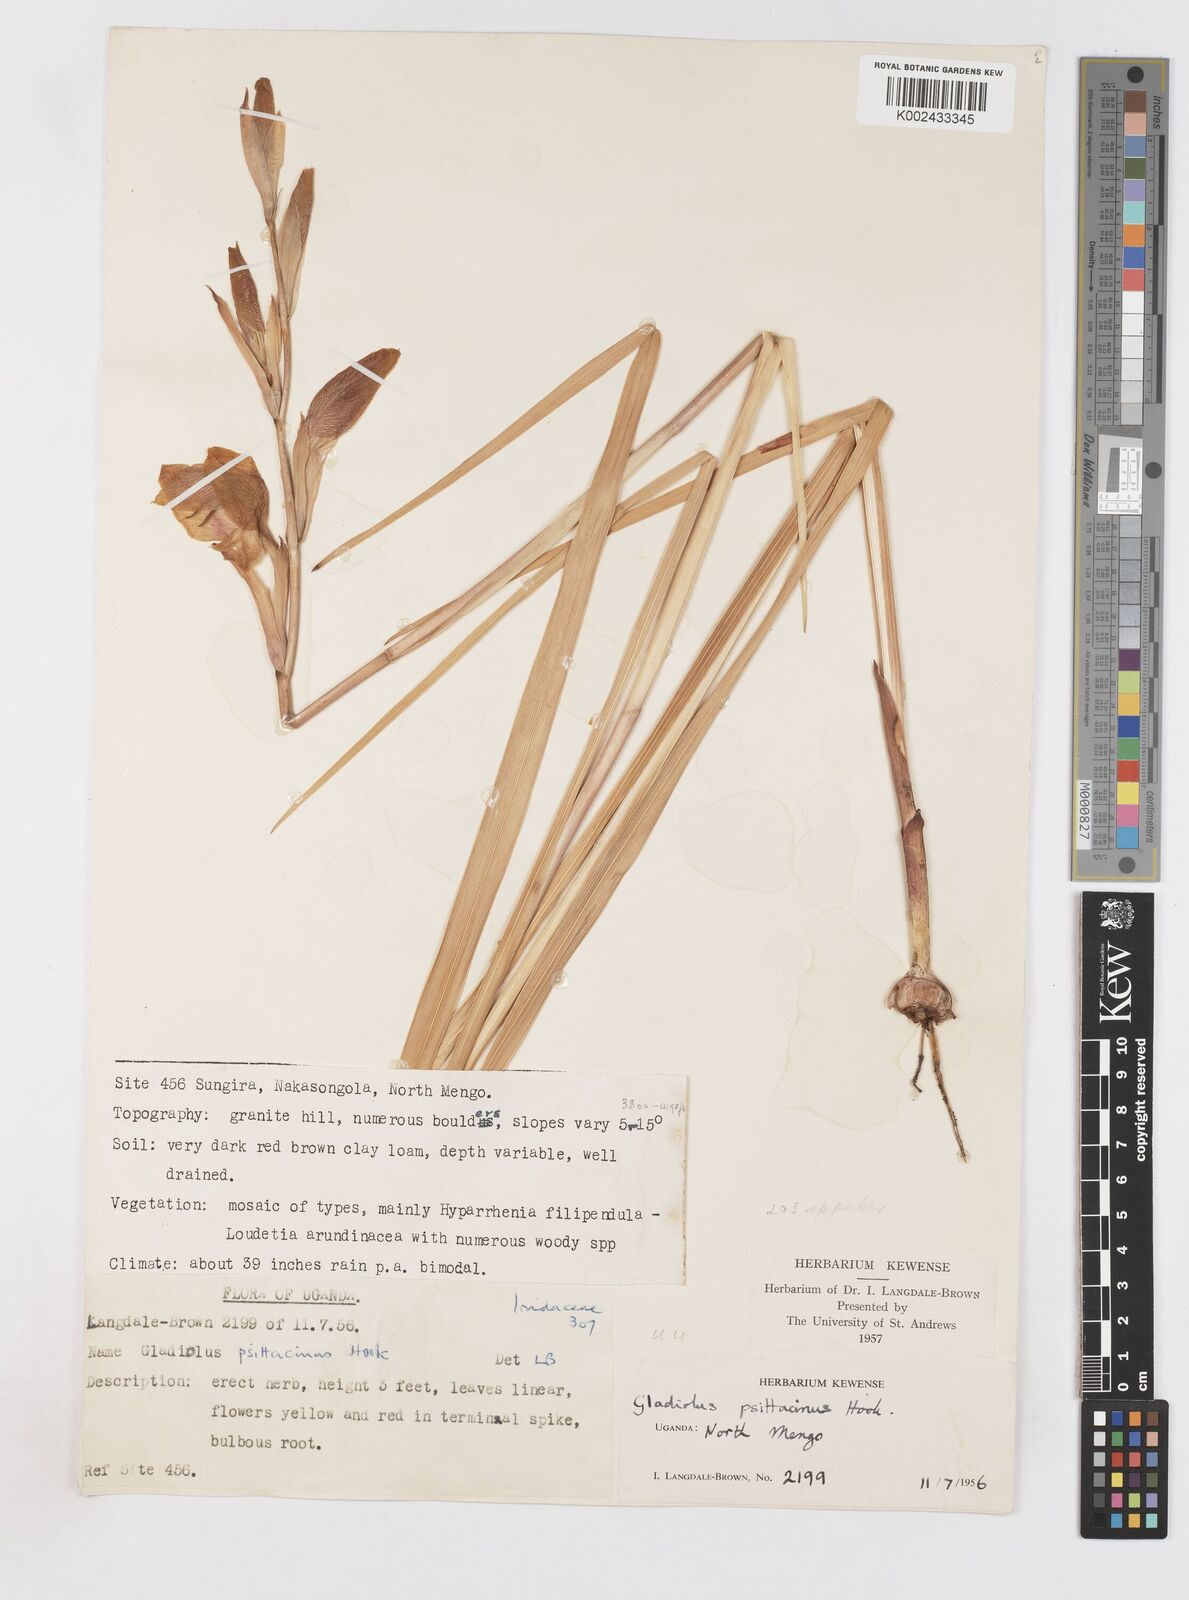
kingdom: Plantae
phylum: Tracheophyta
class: Liliopsida
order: Asparagales
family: Iridaceae
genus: Gladiolus
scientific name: Gladiolus dalenii
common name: Cornflag
